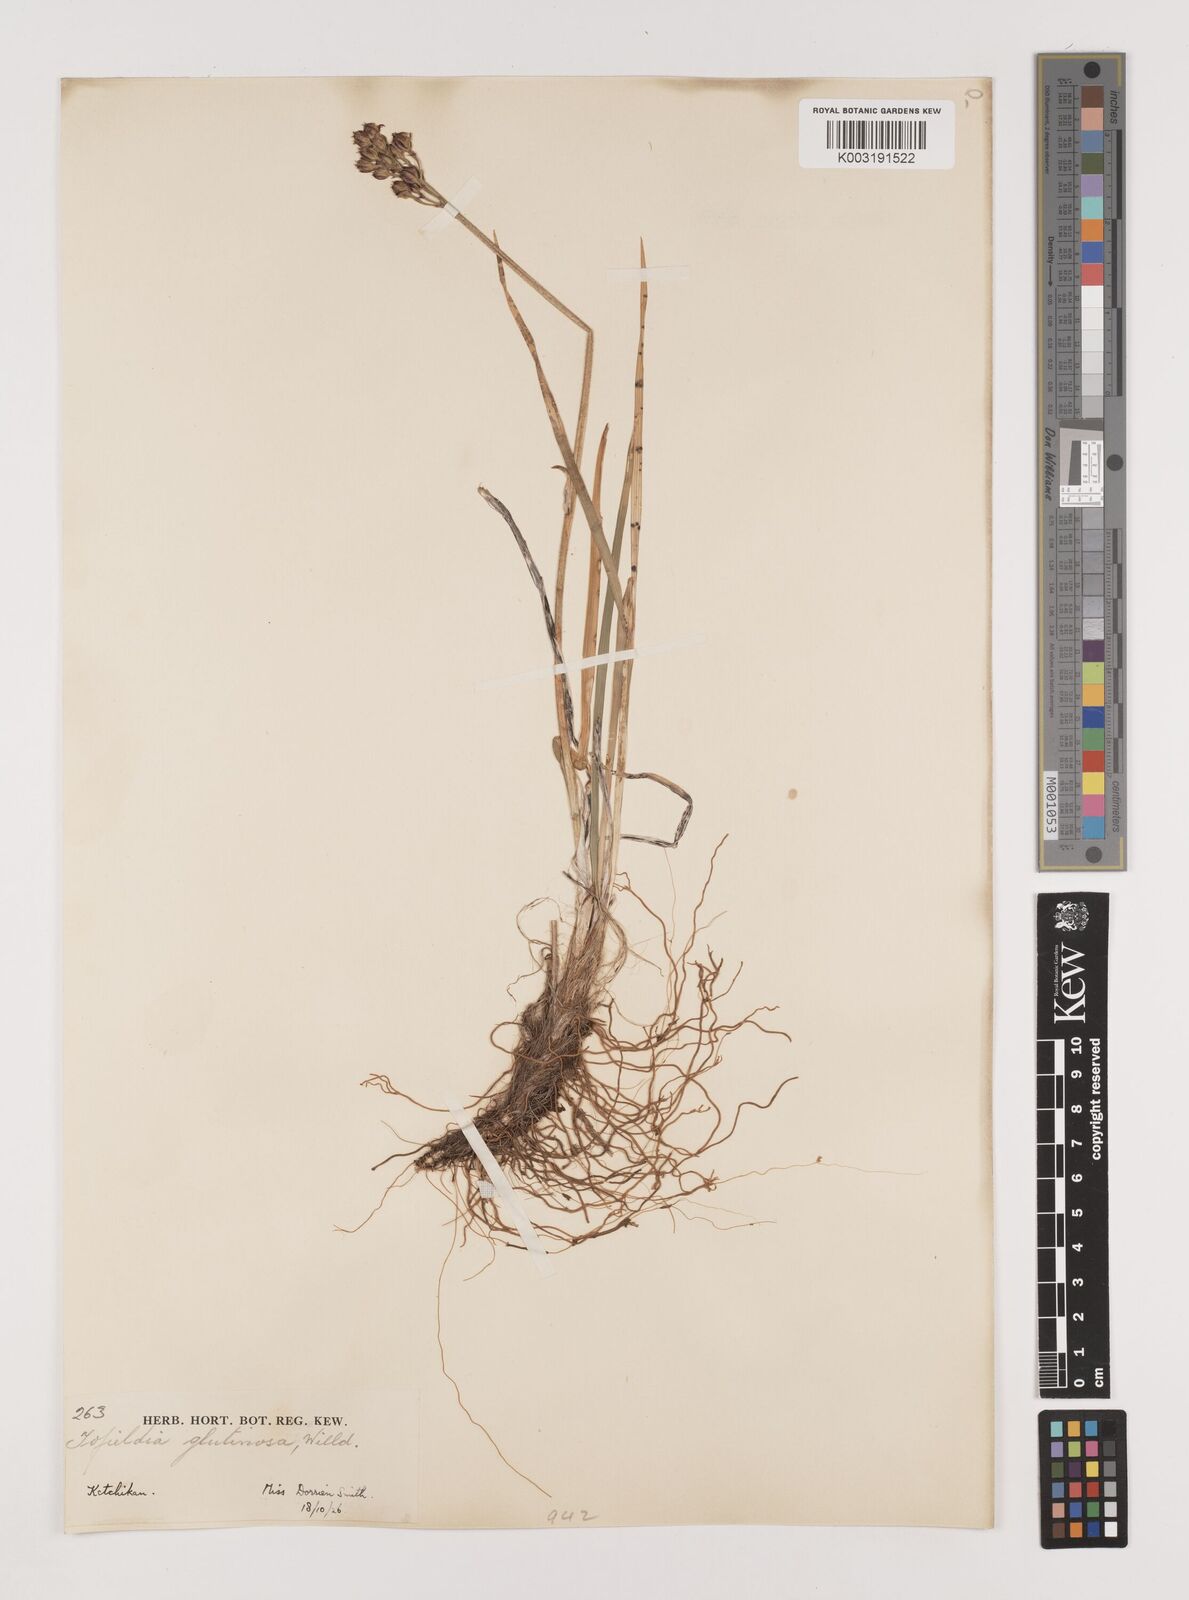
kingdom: Plantae
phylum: Tracheophyta
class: Liliopsida
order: Alismatales
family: Tofieldiaceae
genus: Triantha
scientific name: Triantha glutinosa
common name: Glutinous tofieldia
